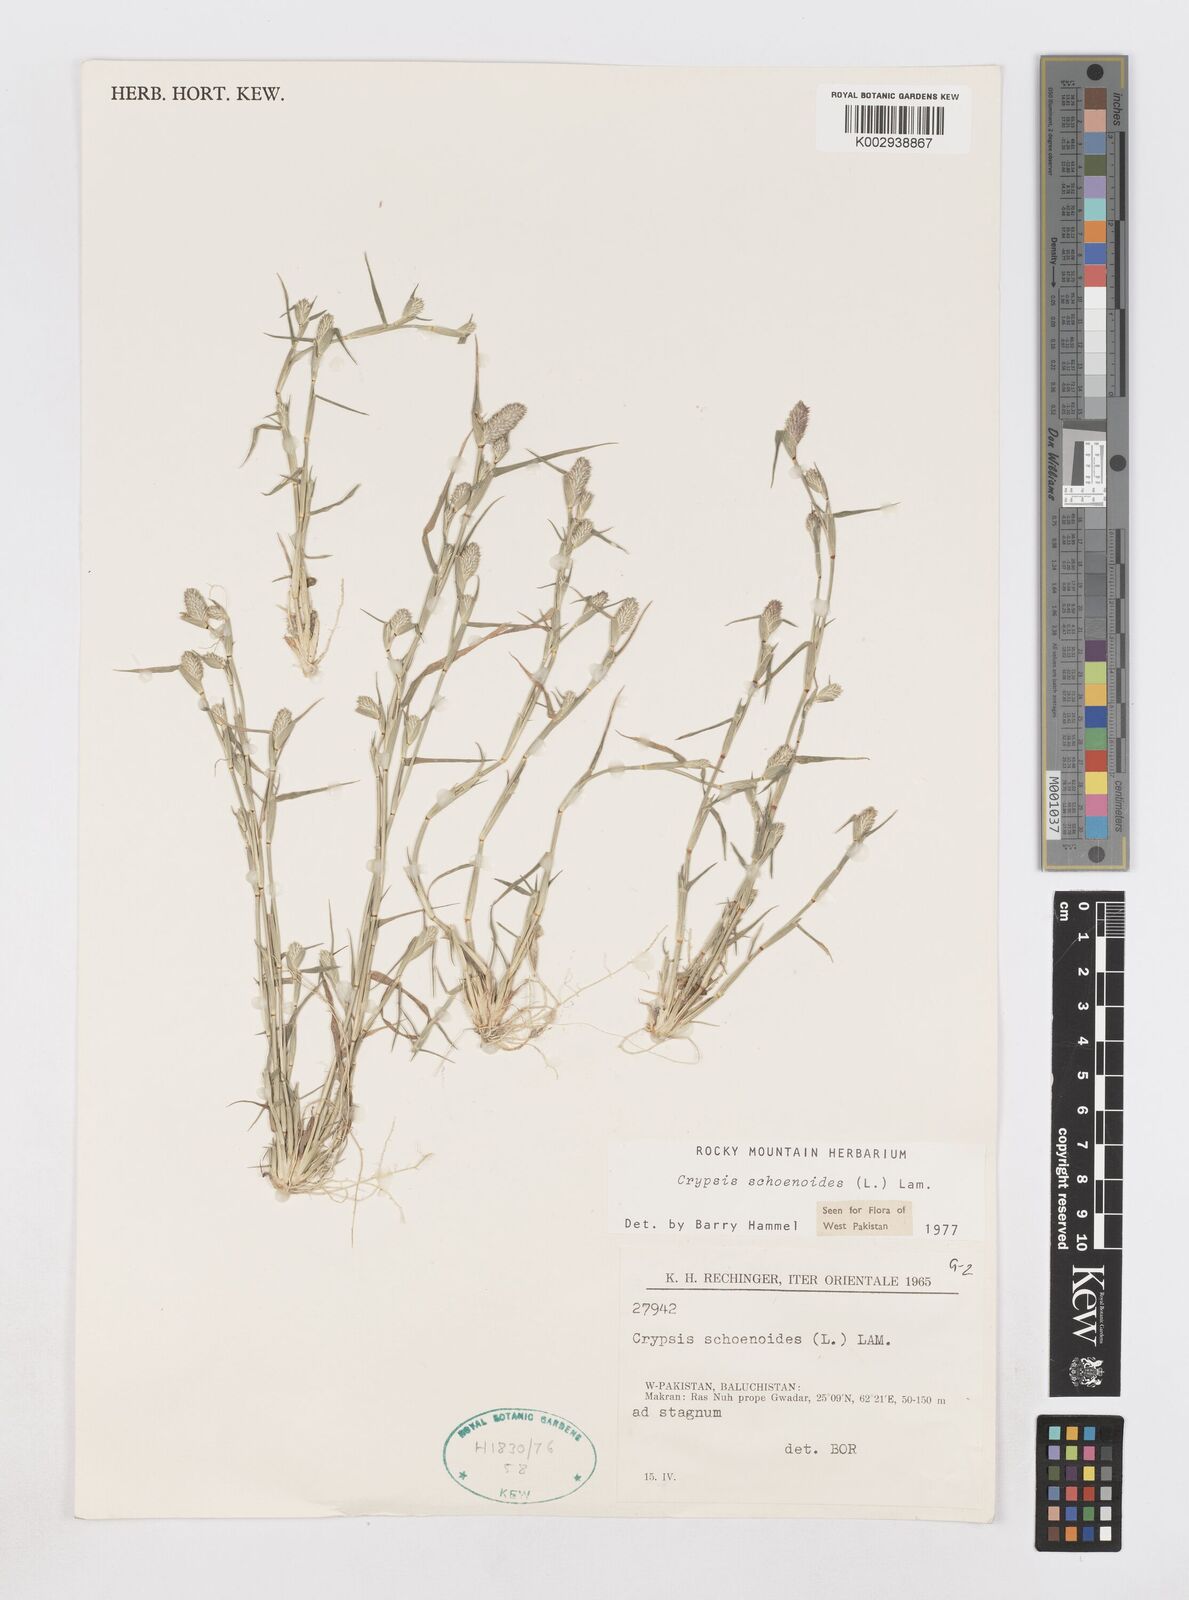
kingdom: Plantae
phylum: Tracheophyta
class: Liliopsida
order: Poales
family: Poaceae
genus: Sporobolus
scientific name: Sporobolus schoenoides
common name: Rush-like timothy
